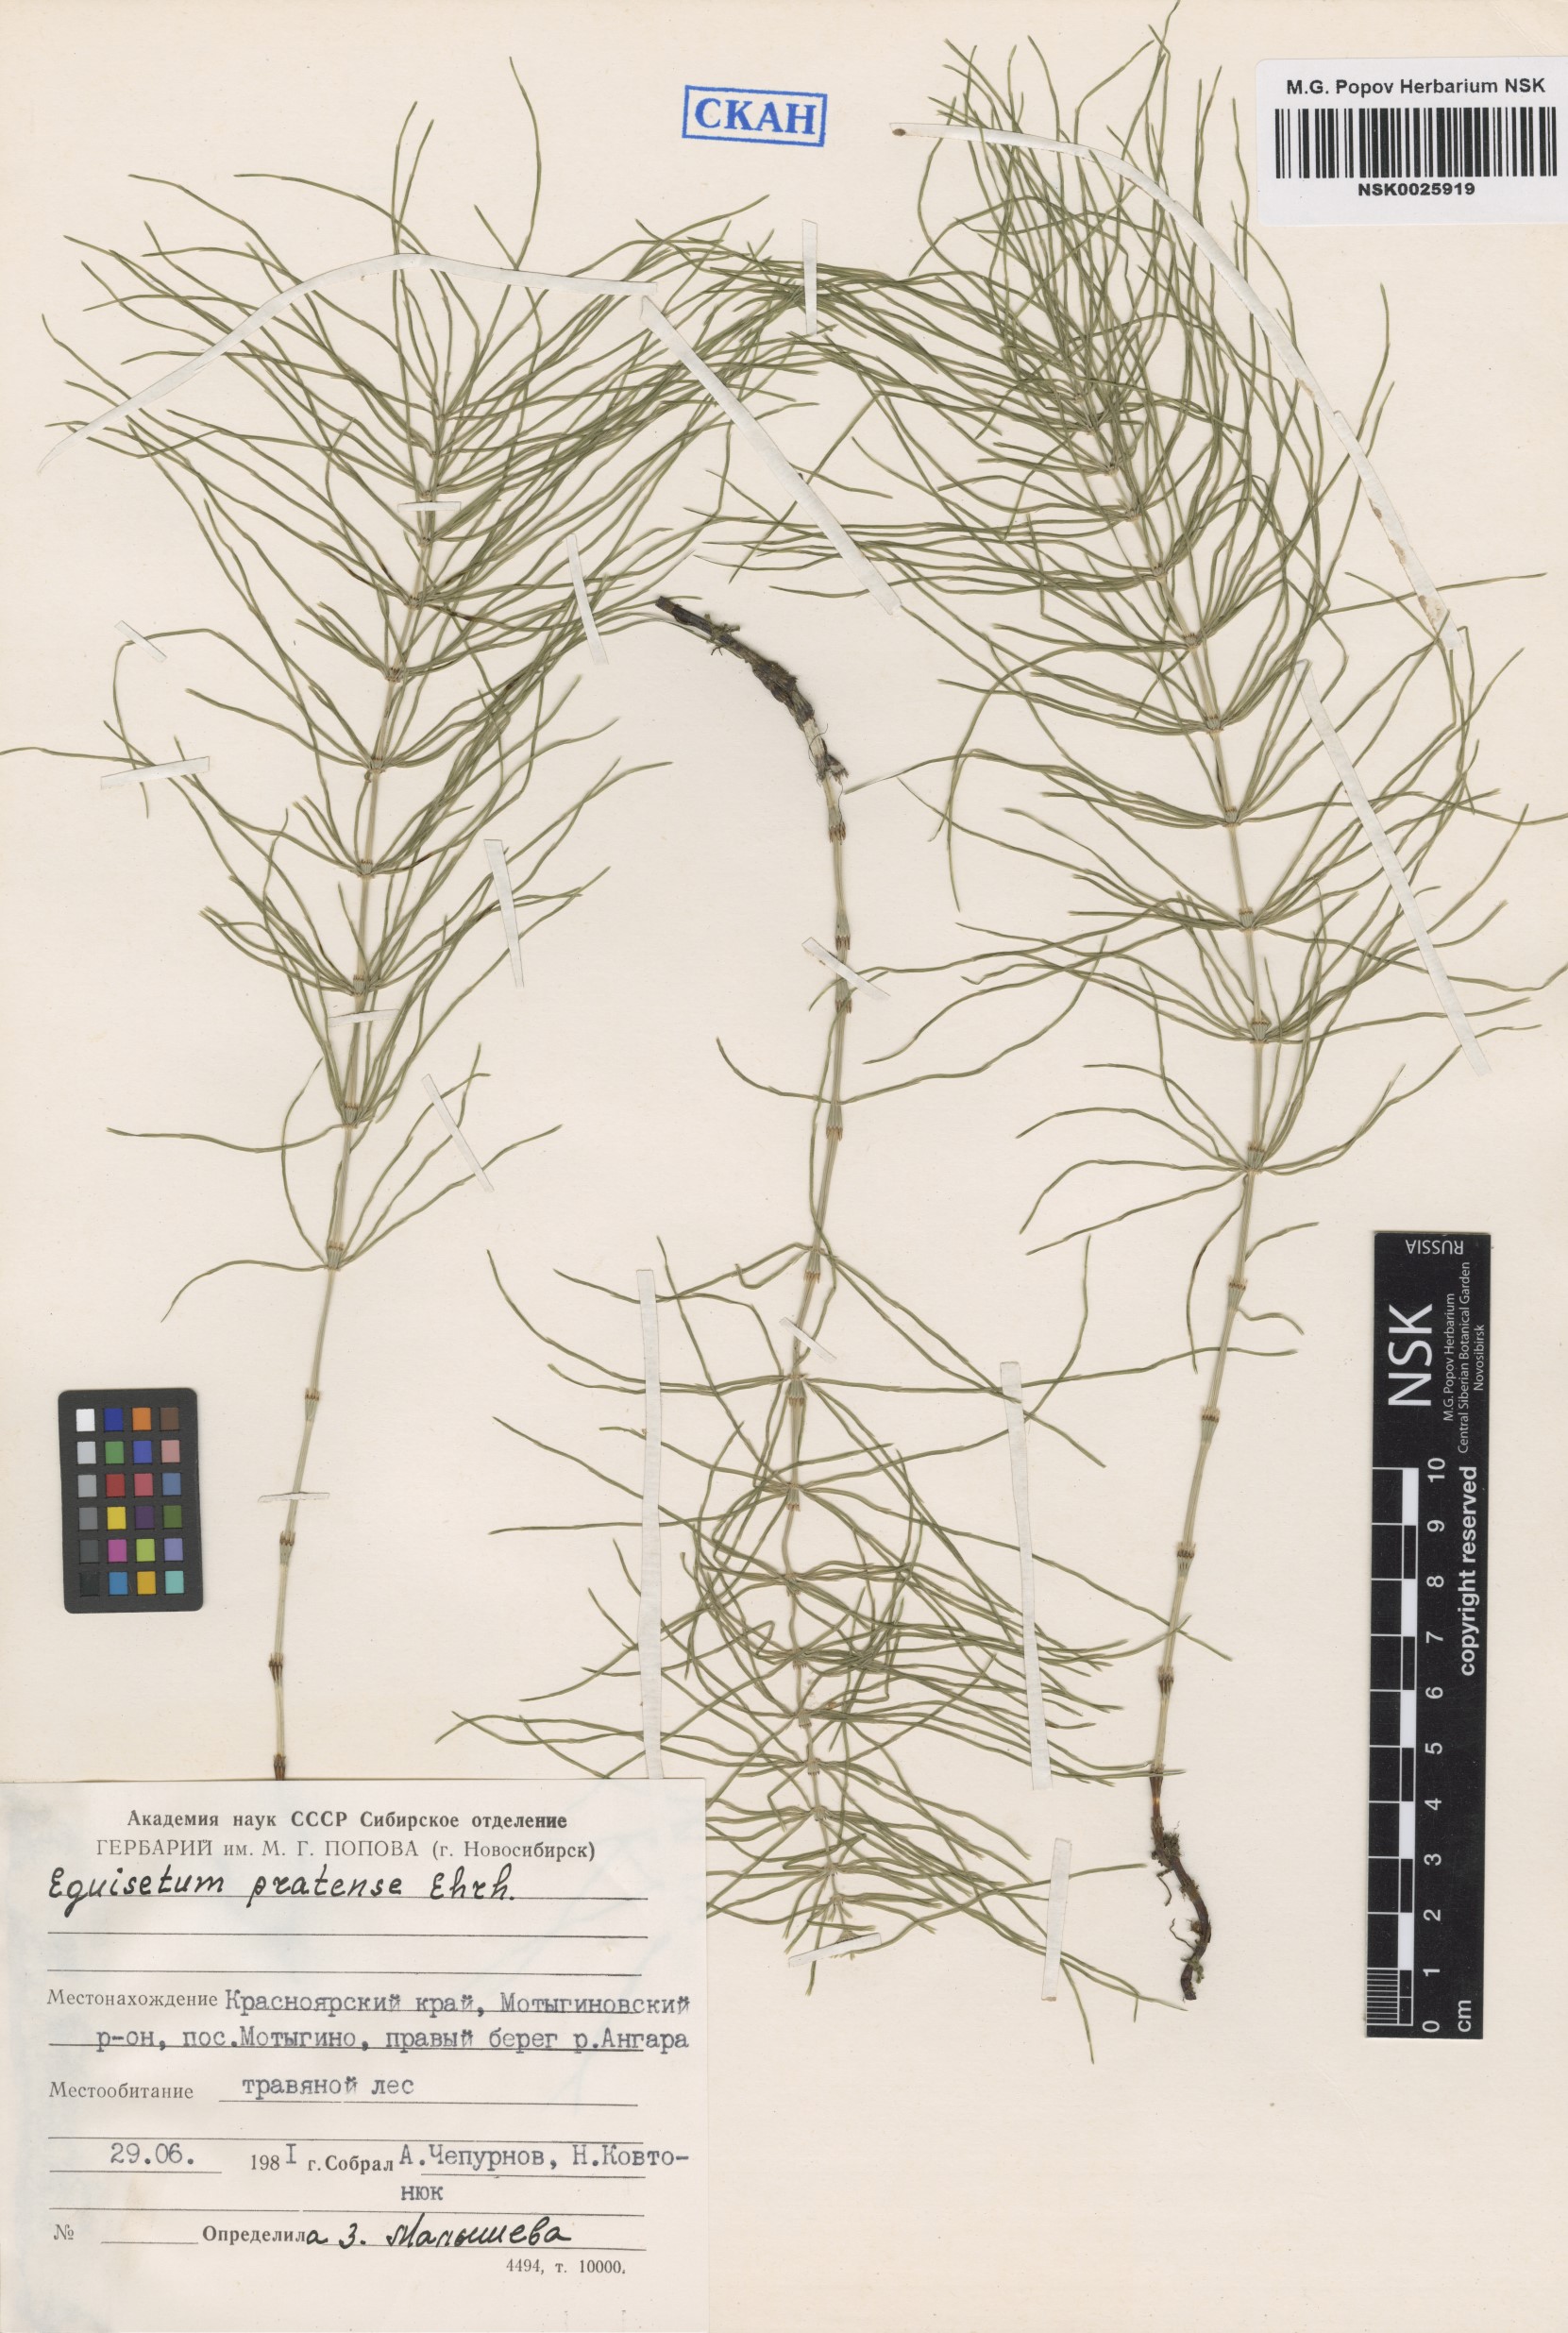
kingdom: Plantae
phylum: Tracheophyta
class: Polypodiopsida
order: Equisetales
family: Equisetaceae
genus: Equisetum
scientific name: Equisetum pratense
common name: Meadow horsetail
